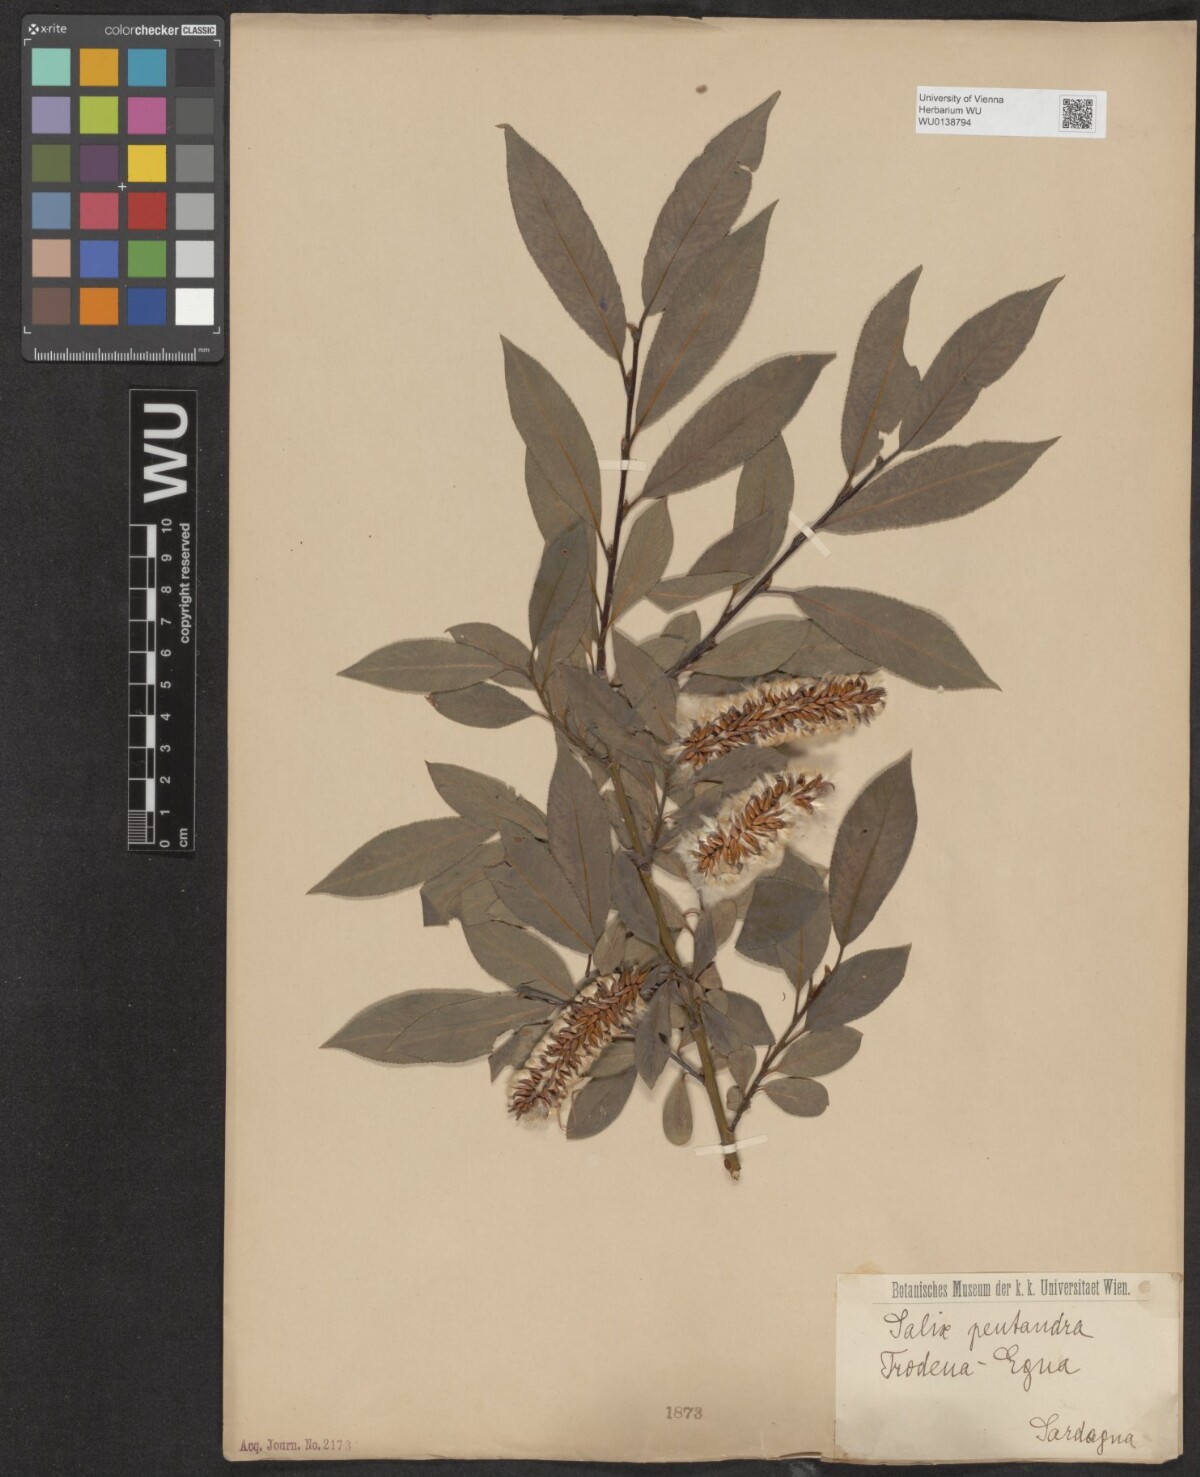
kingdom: Plantae
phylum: Tracheophyta
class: Magnoliopsida
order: Malpighiales
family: Salicaceae
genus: Salix
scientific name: Salix pentandra
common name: Bay willow
